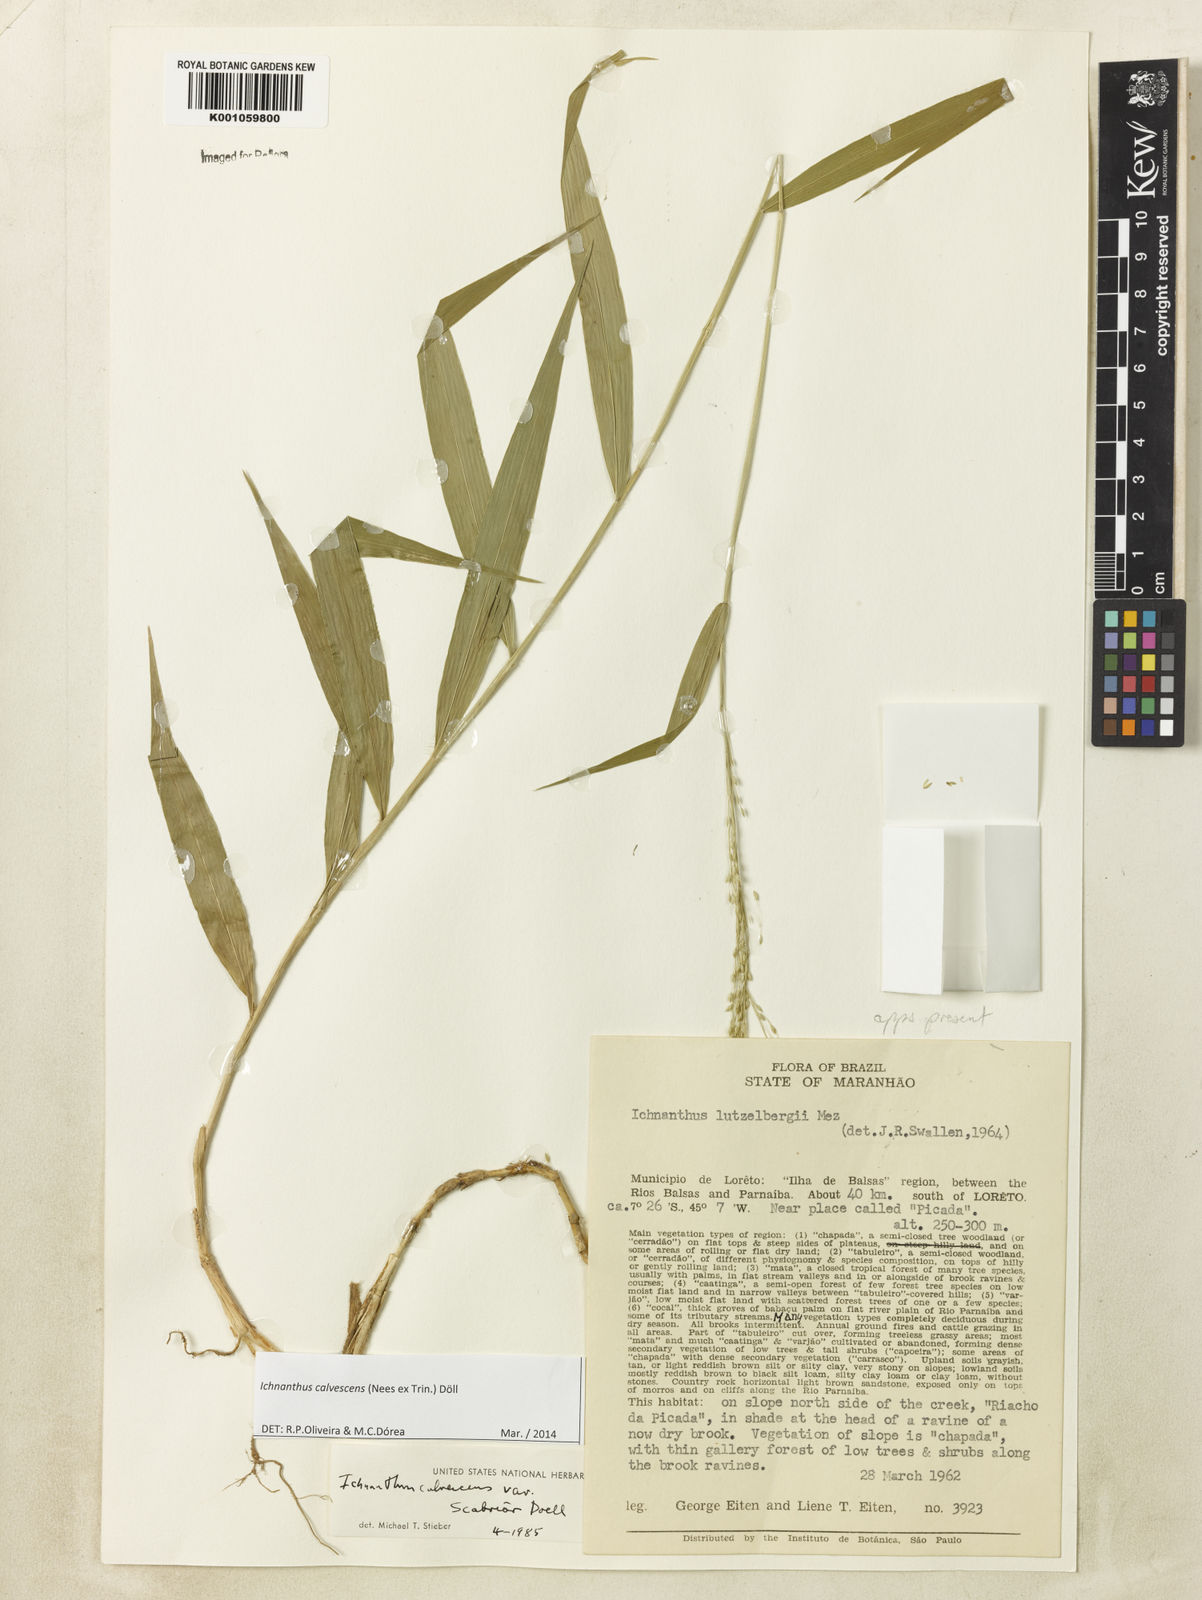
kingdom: Plantae
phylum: Tracheophyta
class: Liliopsida
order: Poales
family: Poaceae
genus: Ichnanthus
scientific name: Ichnanthus
